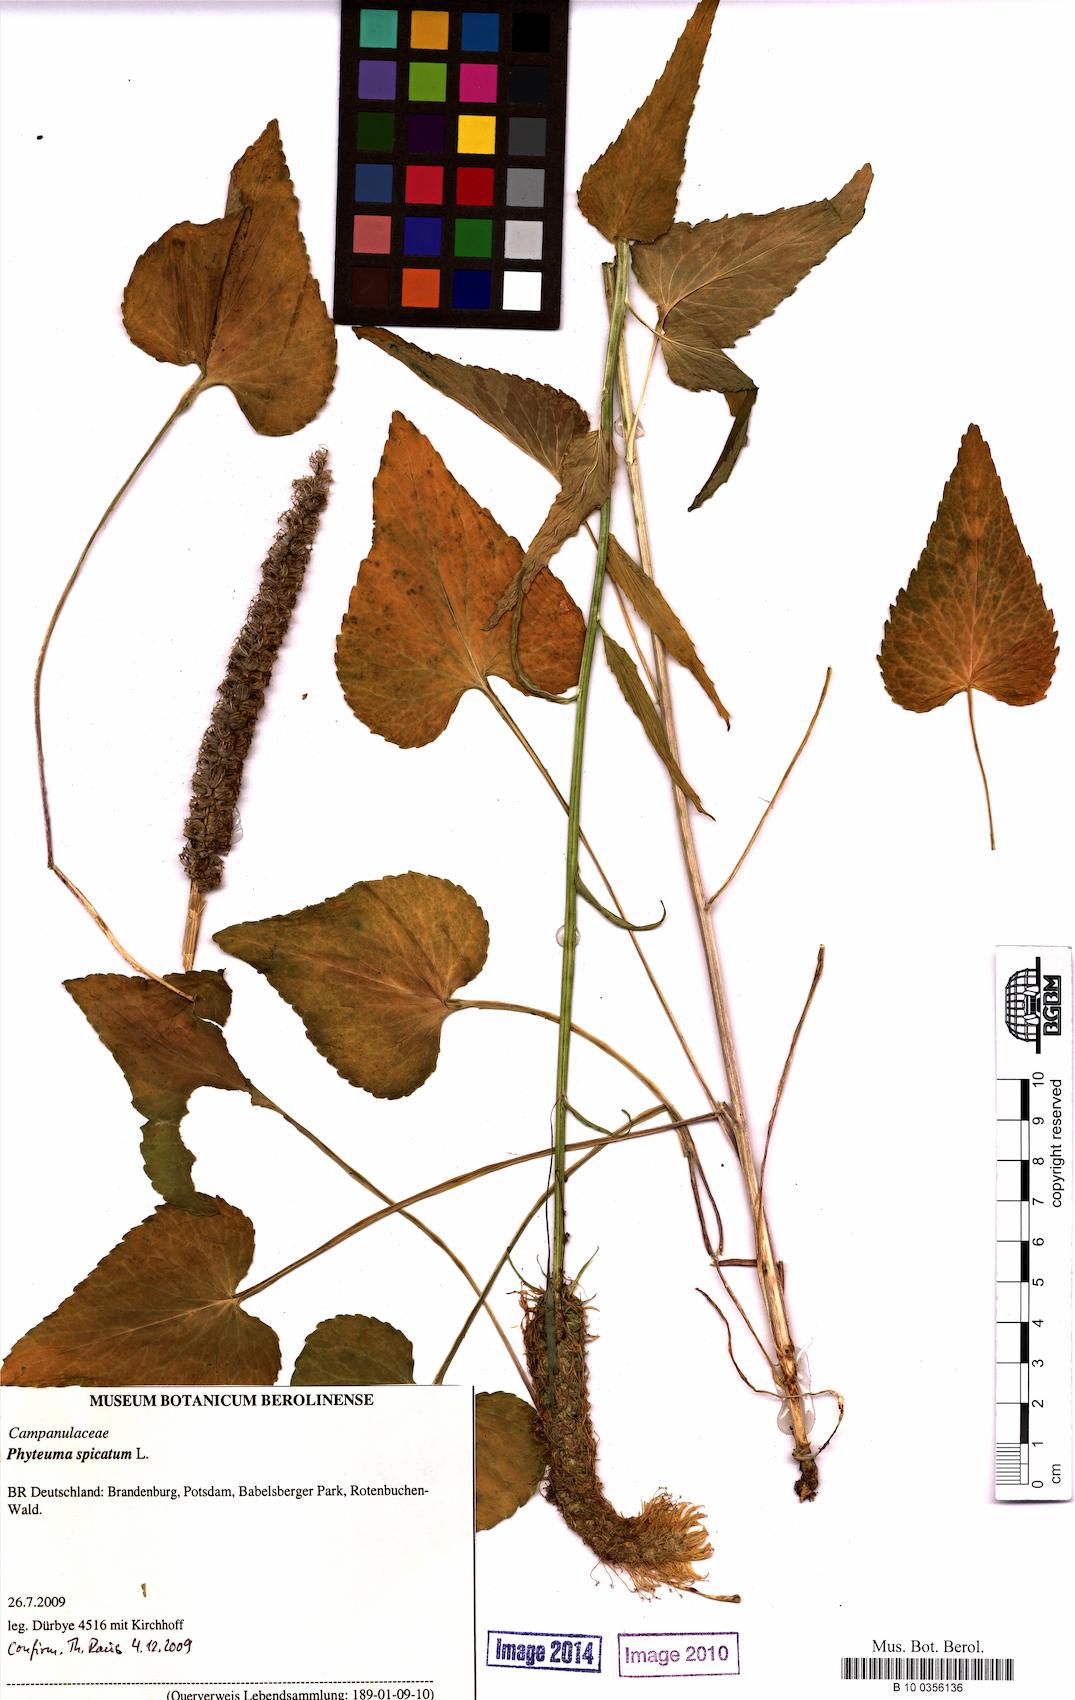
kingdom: Plantae
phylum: Tracheophyta
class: Magnoliopsida
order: Asterales
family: Campanulaceae
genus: Phyteuma
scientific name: Phyteuma spicatum
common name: Spiked rampion
